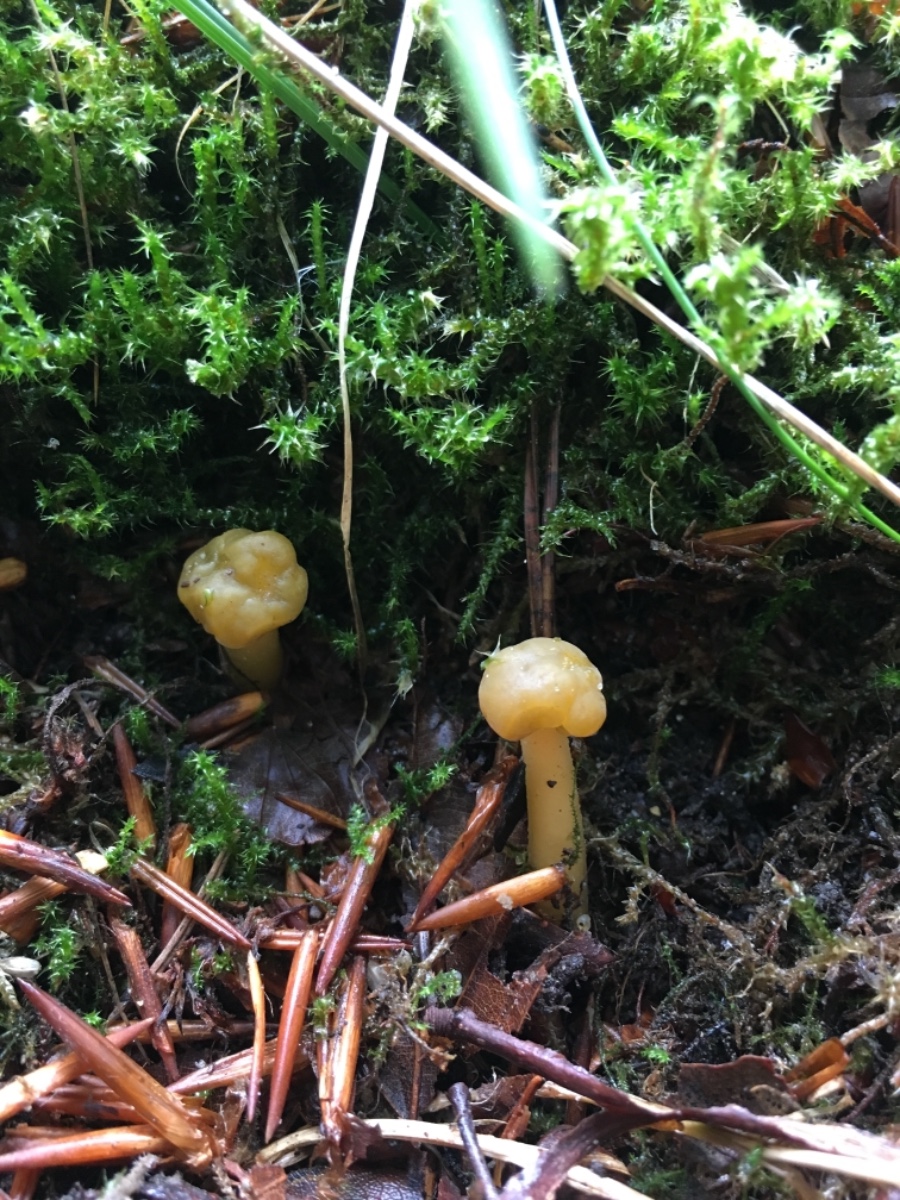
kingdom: Fungi
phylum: Ascomycota
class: Leotiomycetes
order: Leotiales
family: Leotiaceae
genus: Leotia
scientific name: Leotia lubrica
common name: ravsvamp
